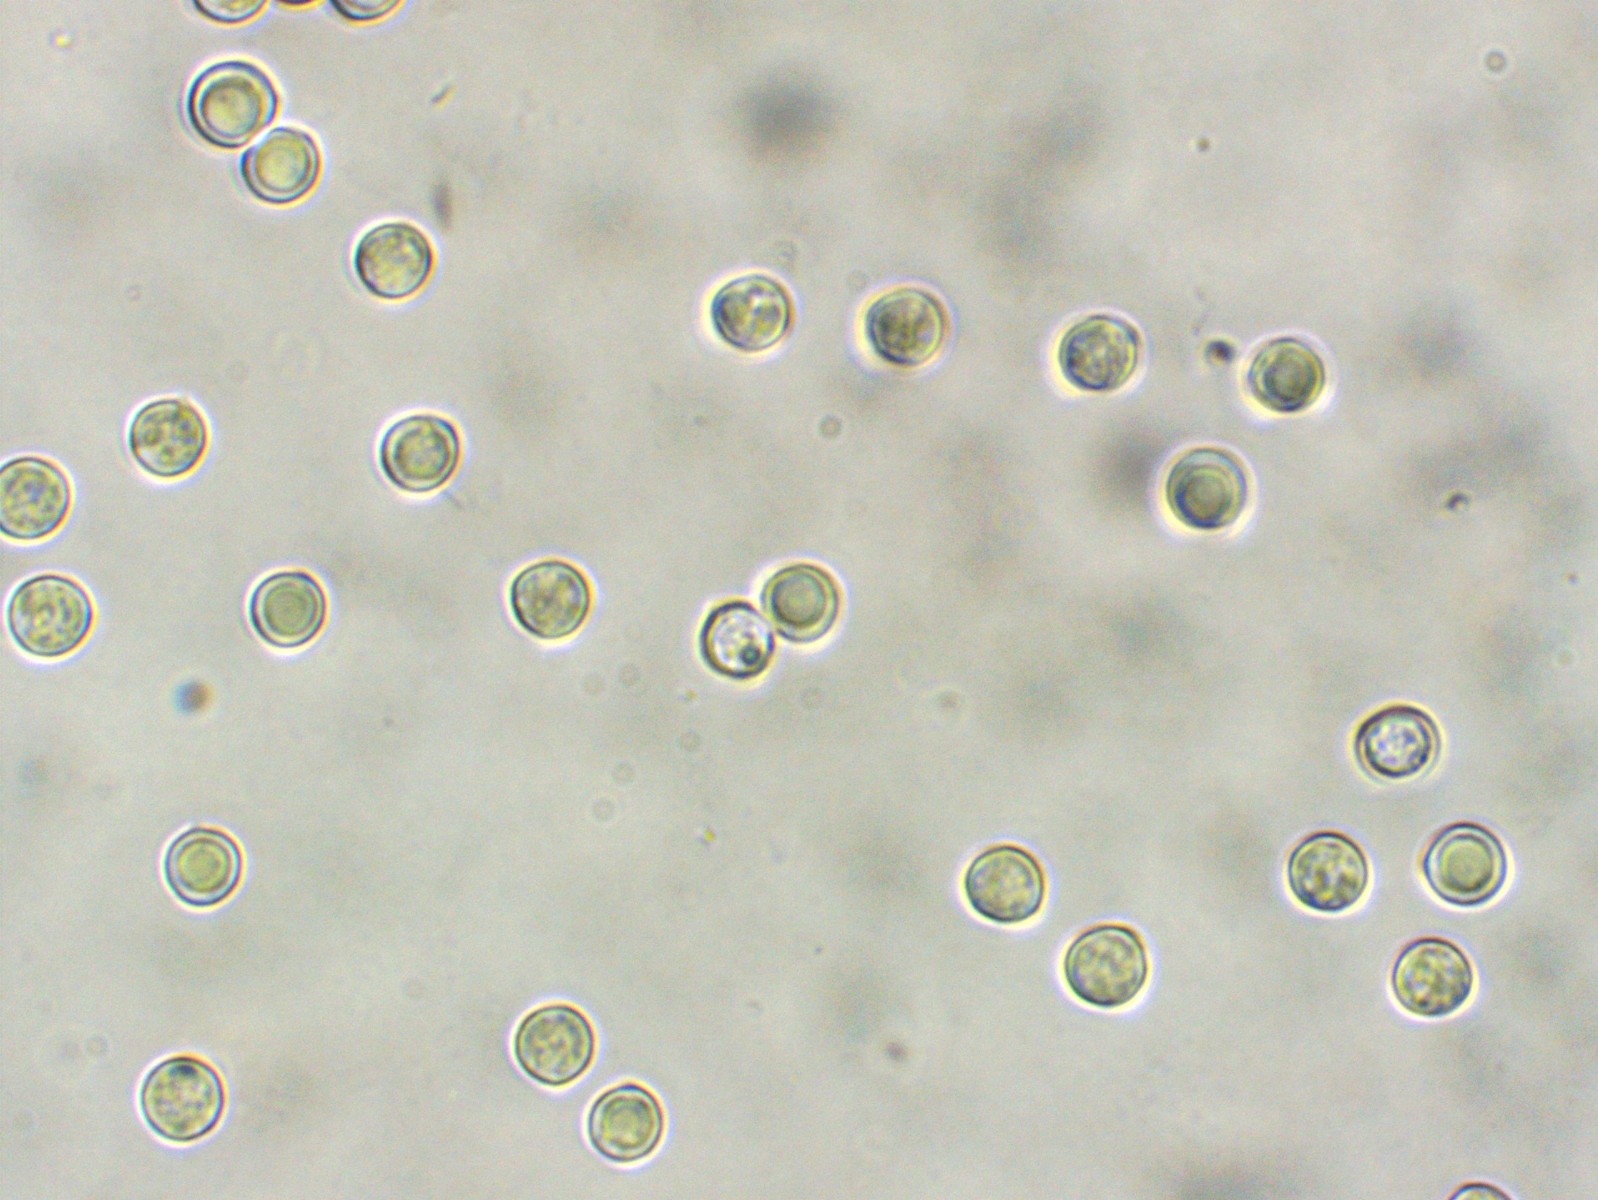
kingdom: Fungi
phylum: Basidiomycota
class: Agaricomycetes
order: Agaricales
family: Lyophyllaceae
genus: Lyophyllum
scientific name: Lyophyllum
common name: gråblad
